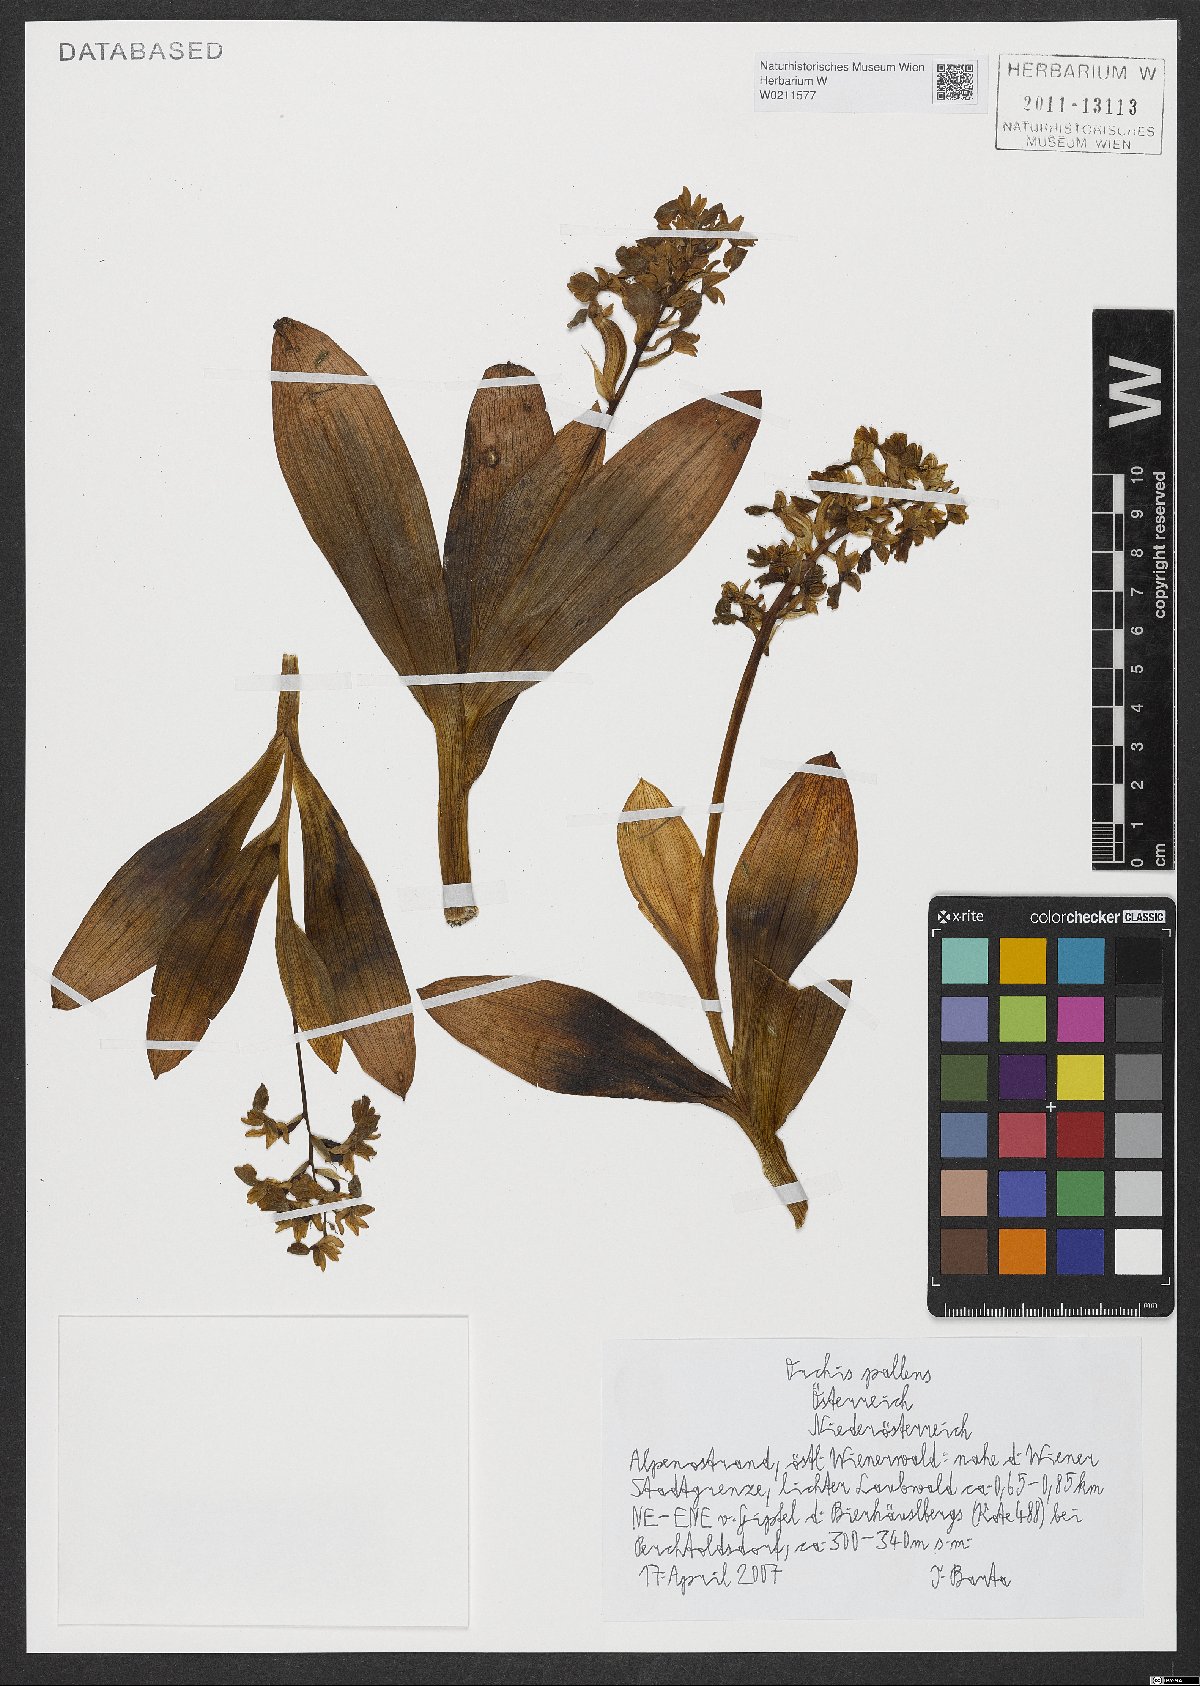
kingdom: Plantae
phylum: Tracheophyta
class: Liliopsida
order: Asparagales
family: Orchidaceae
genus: Orchis
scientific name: Orchis pallens
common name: Pale-flowered orchid
